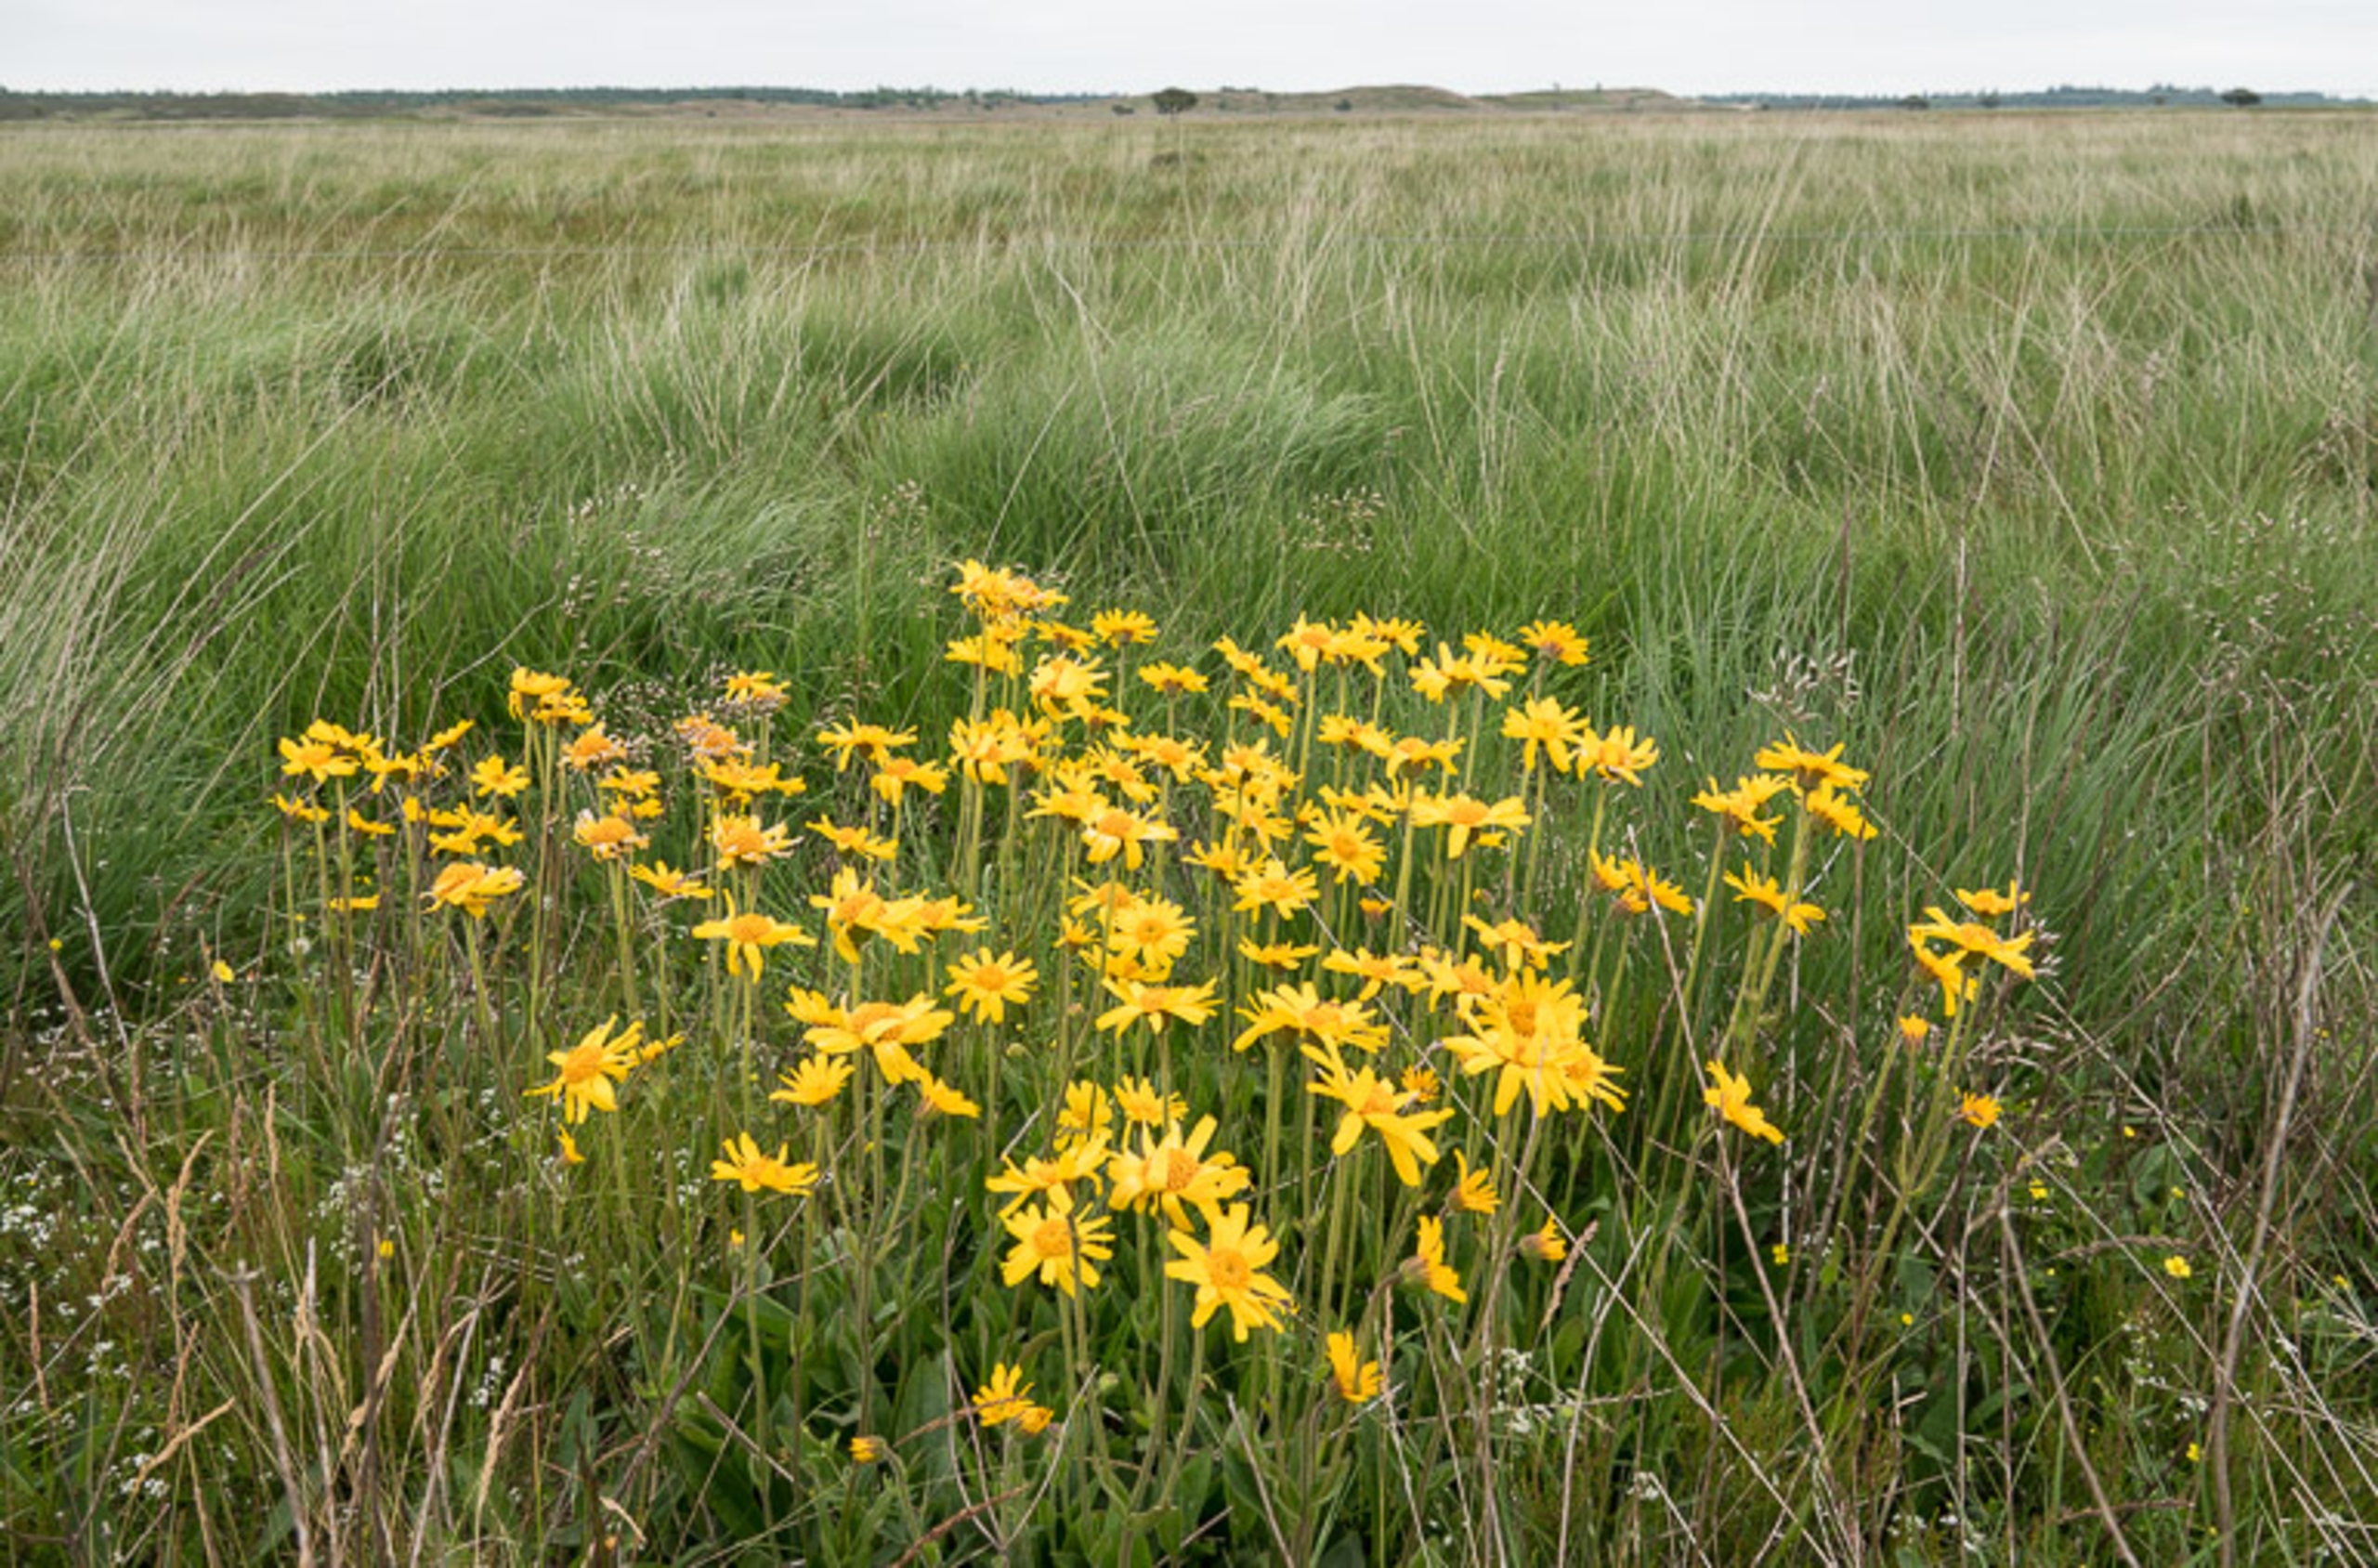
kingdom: Plantae
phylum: Tracheophyta
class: Magnoliopsida
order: Asterales
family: Asteraceae
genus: Arnica
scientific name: Arnica montana
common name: Guldblomme
